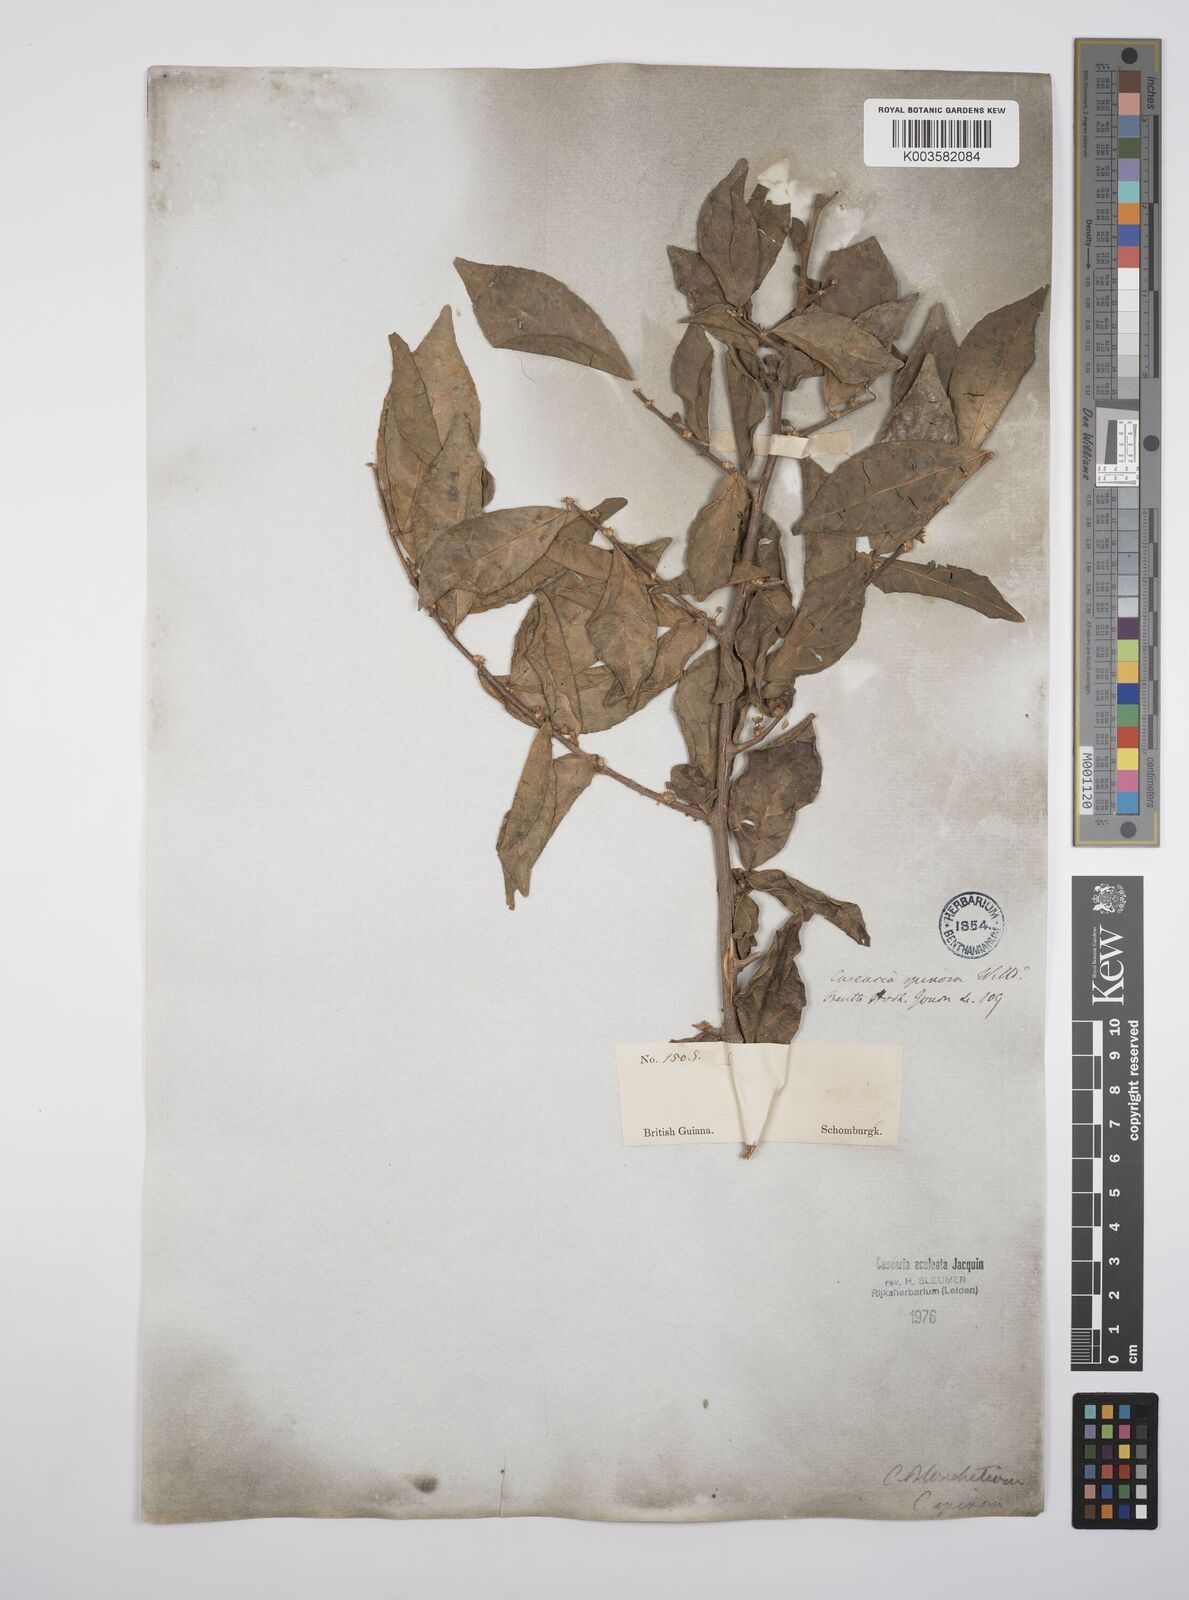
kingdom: Plantae
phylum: Tracheophyta
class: Magnoliopsida
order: Malpighiales
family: Salicaceae
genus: Casearia
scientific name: Casearia aculeata
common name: Cockspur
